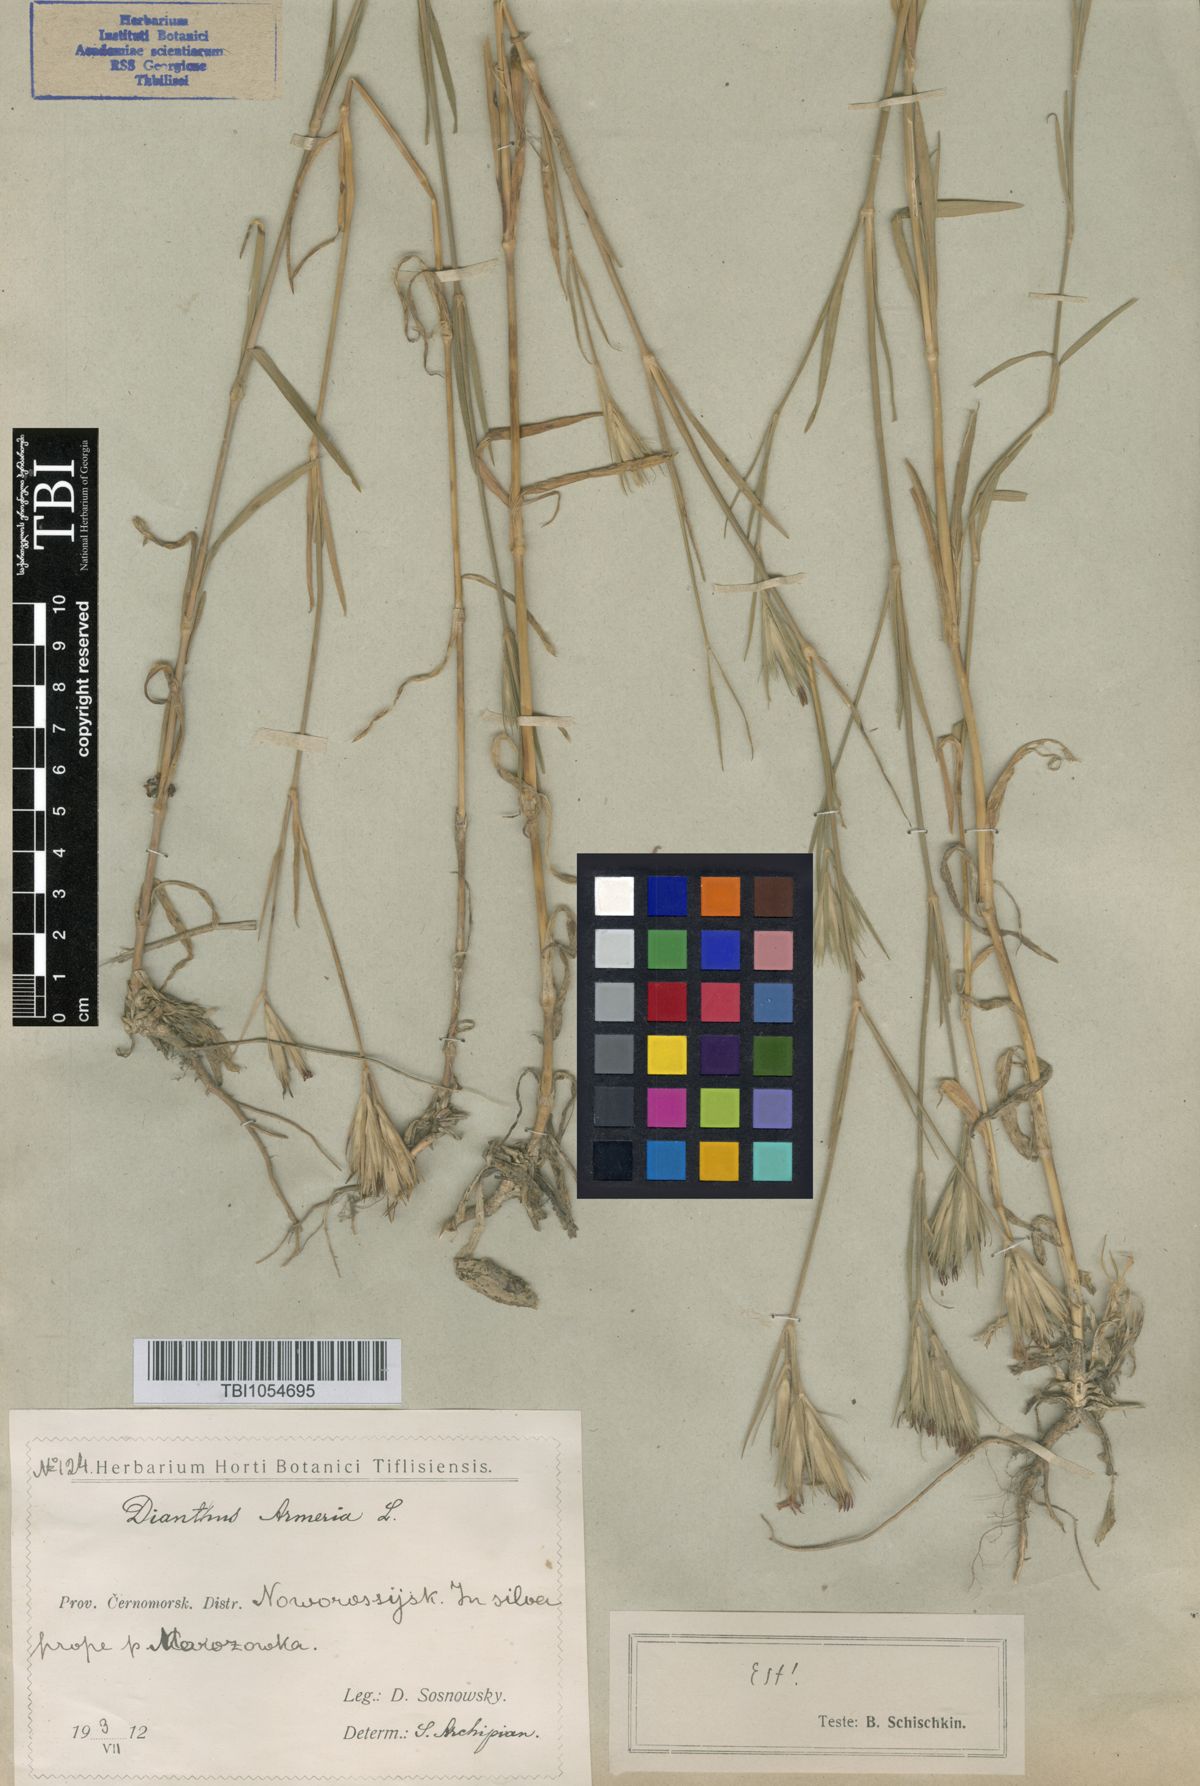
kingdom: Plantae
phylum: Tracheophyta
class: Magnoliopsida
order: Caryophyllales
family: Caryophyllaceae
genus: Dianthus
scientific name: Dianthus armeria
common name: Deptford pink
